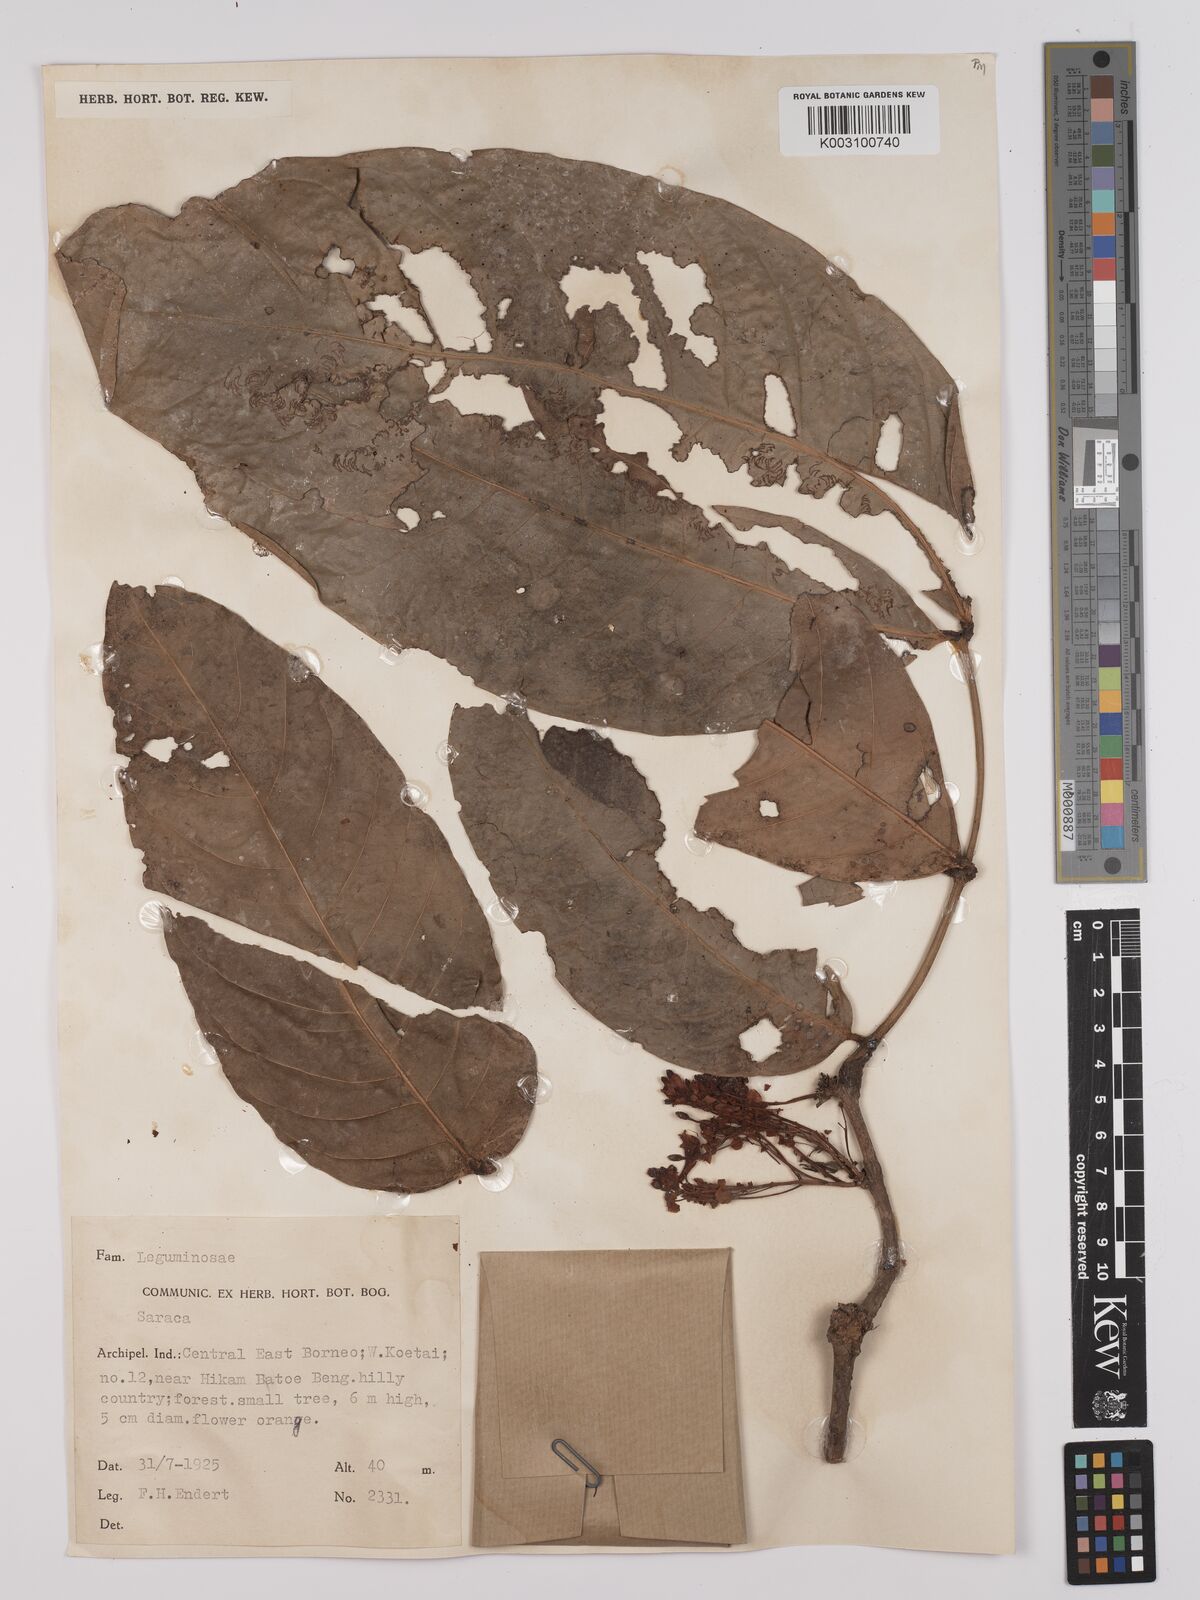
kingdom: Plantae
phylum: Tracheophyta
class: Magnoliopsida
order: Fabales
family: Fabaceae
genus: Saraca
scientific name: Saraca declinata
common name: Red saraca
